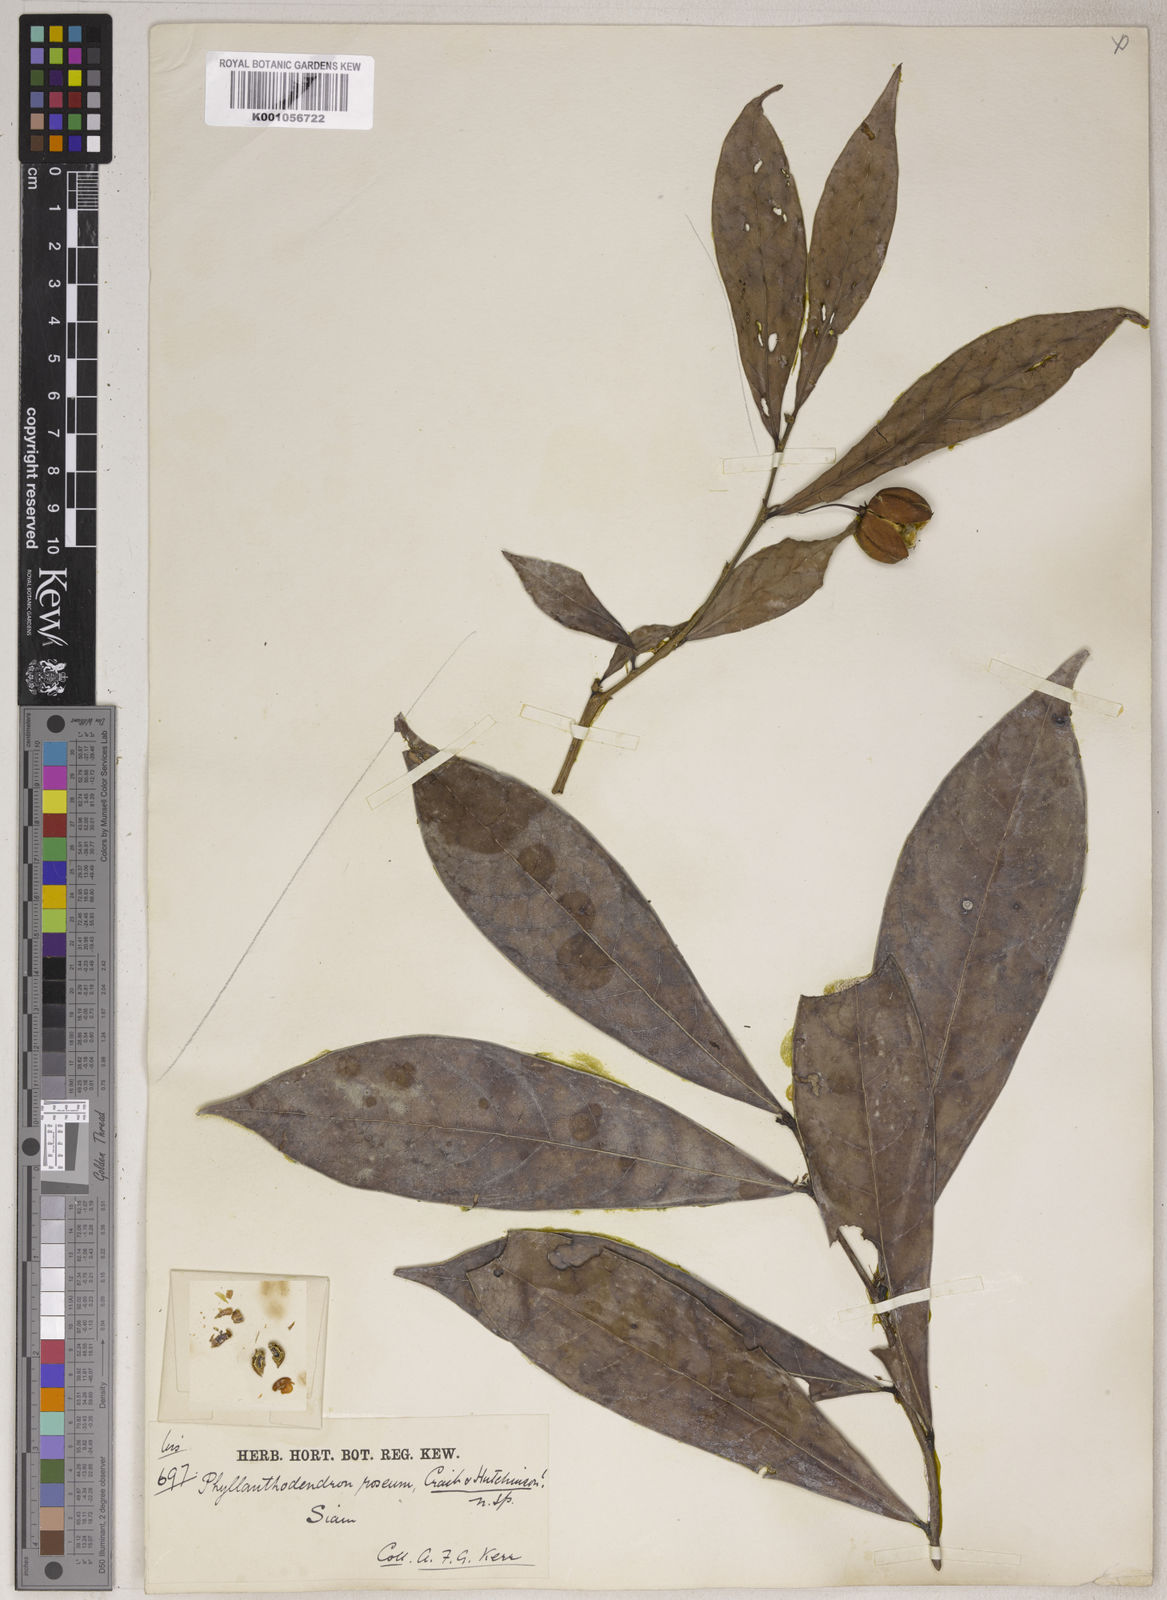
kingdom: Plantae
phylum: Tracheophyta
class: Magnoliopsida
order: Malpighiales
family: Phyllanthaceae
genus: Phyllanthus
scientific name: Phyllanthus roseus
